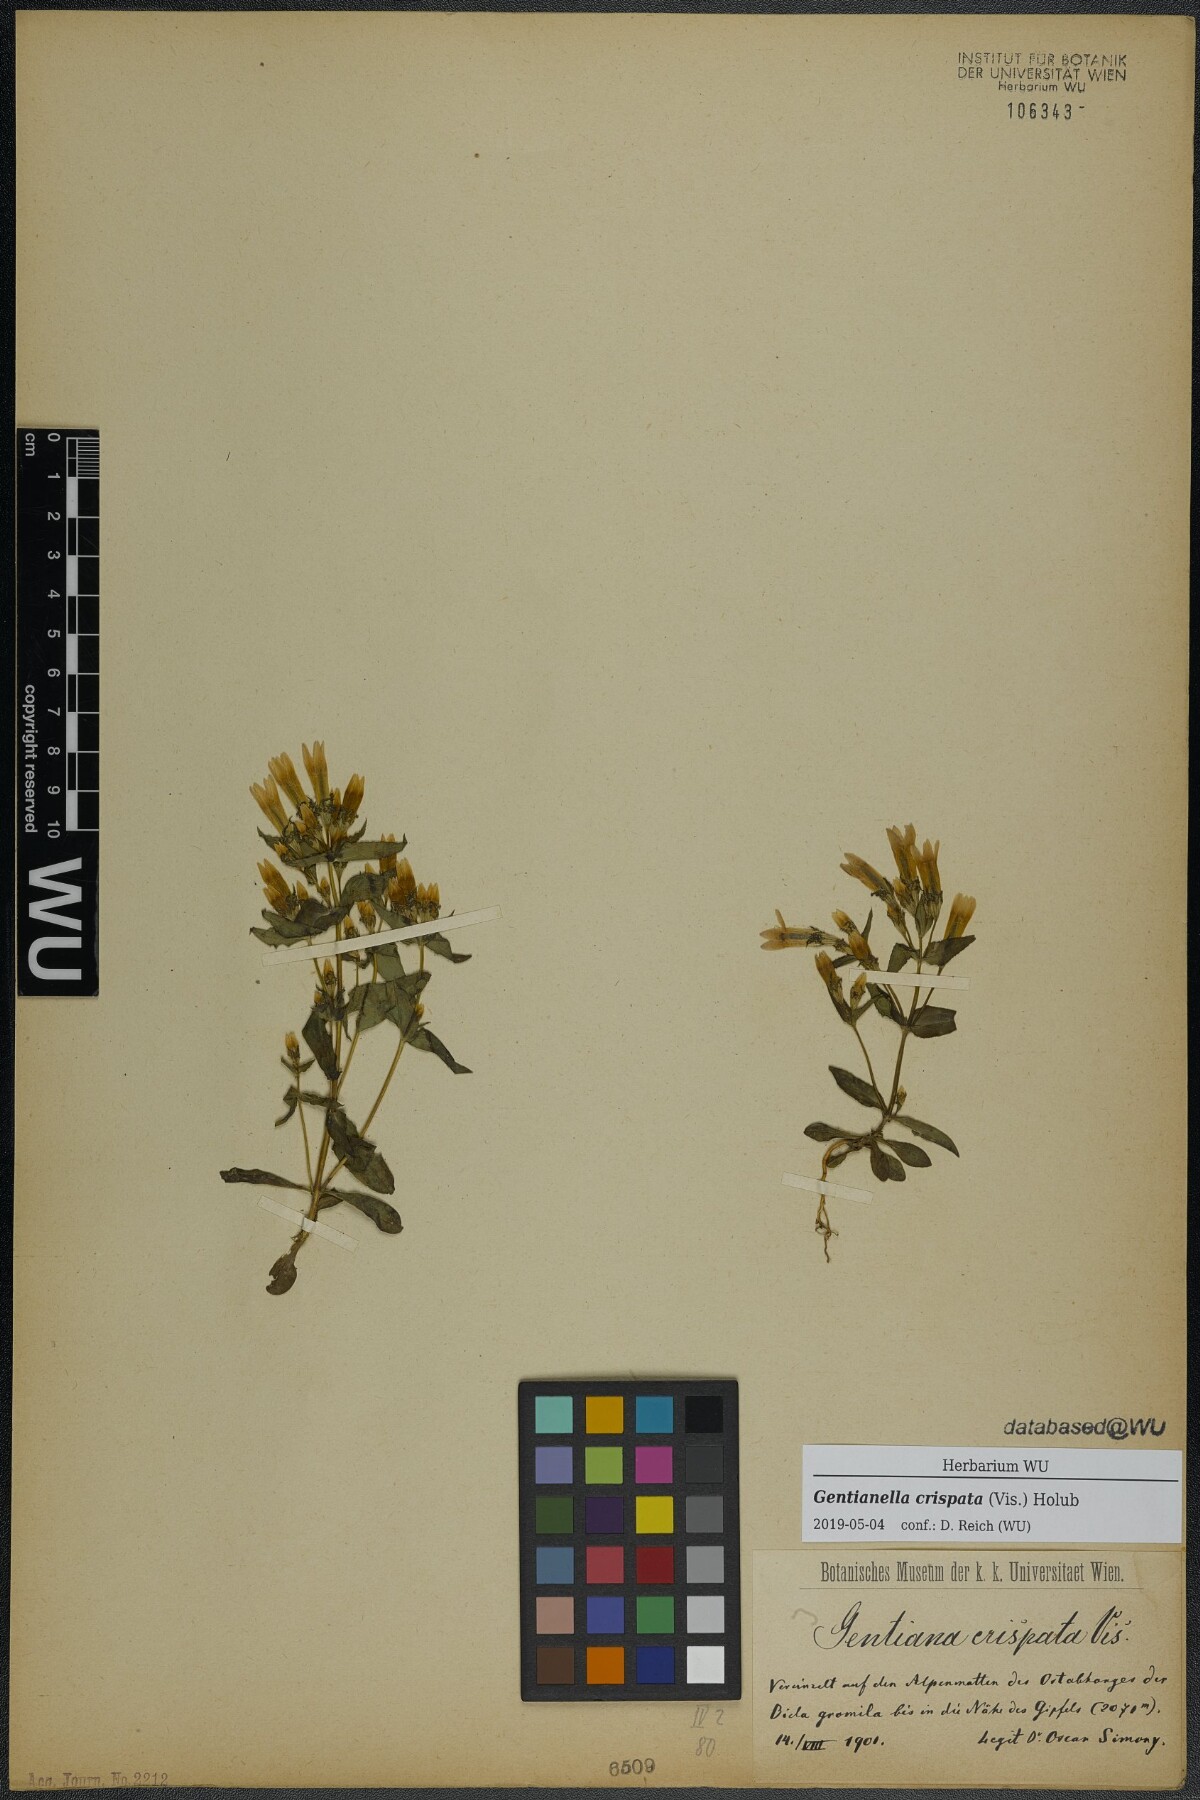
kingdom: Plantae
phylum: Tracheophyta
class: Magnoliopsida
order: Gentianales
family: Gentianaceae
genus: Gentianella
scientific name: Gentianella crispata
